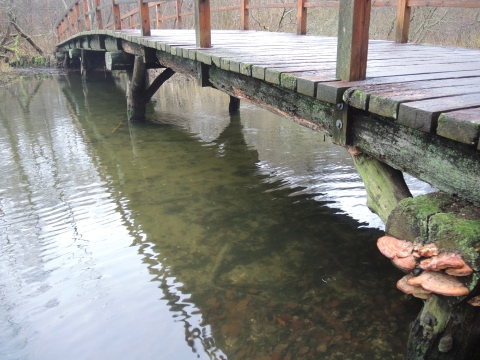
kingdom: Fungi
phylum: Basidiomycota
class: Agaricomycetes
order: Polyporales
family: Fomitopsidaceae
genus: Daedalea
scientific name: Daedalea quercina
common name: ege-labyrintsvamp
